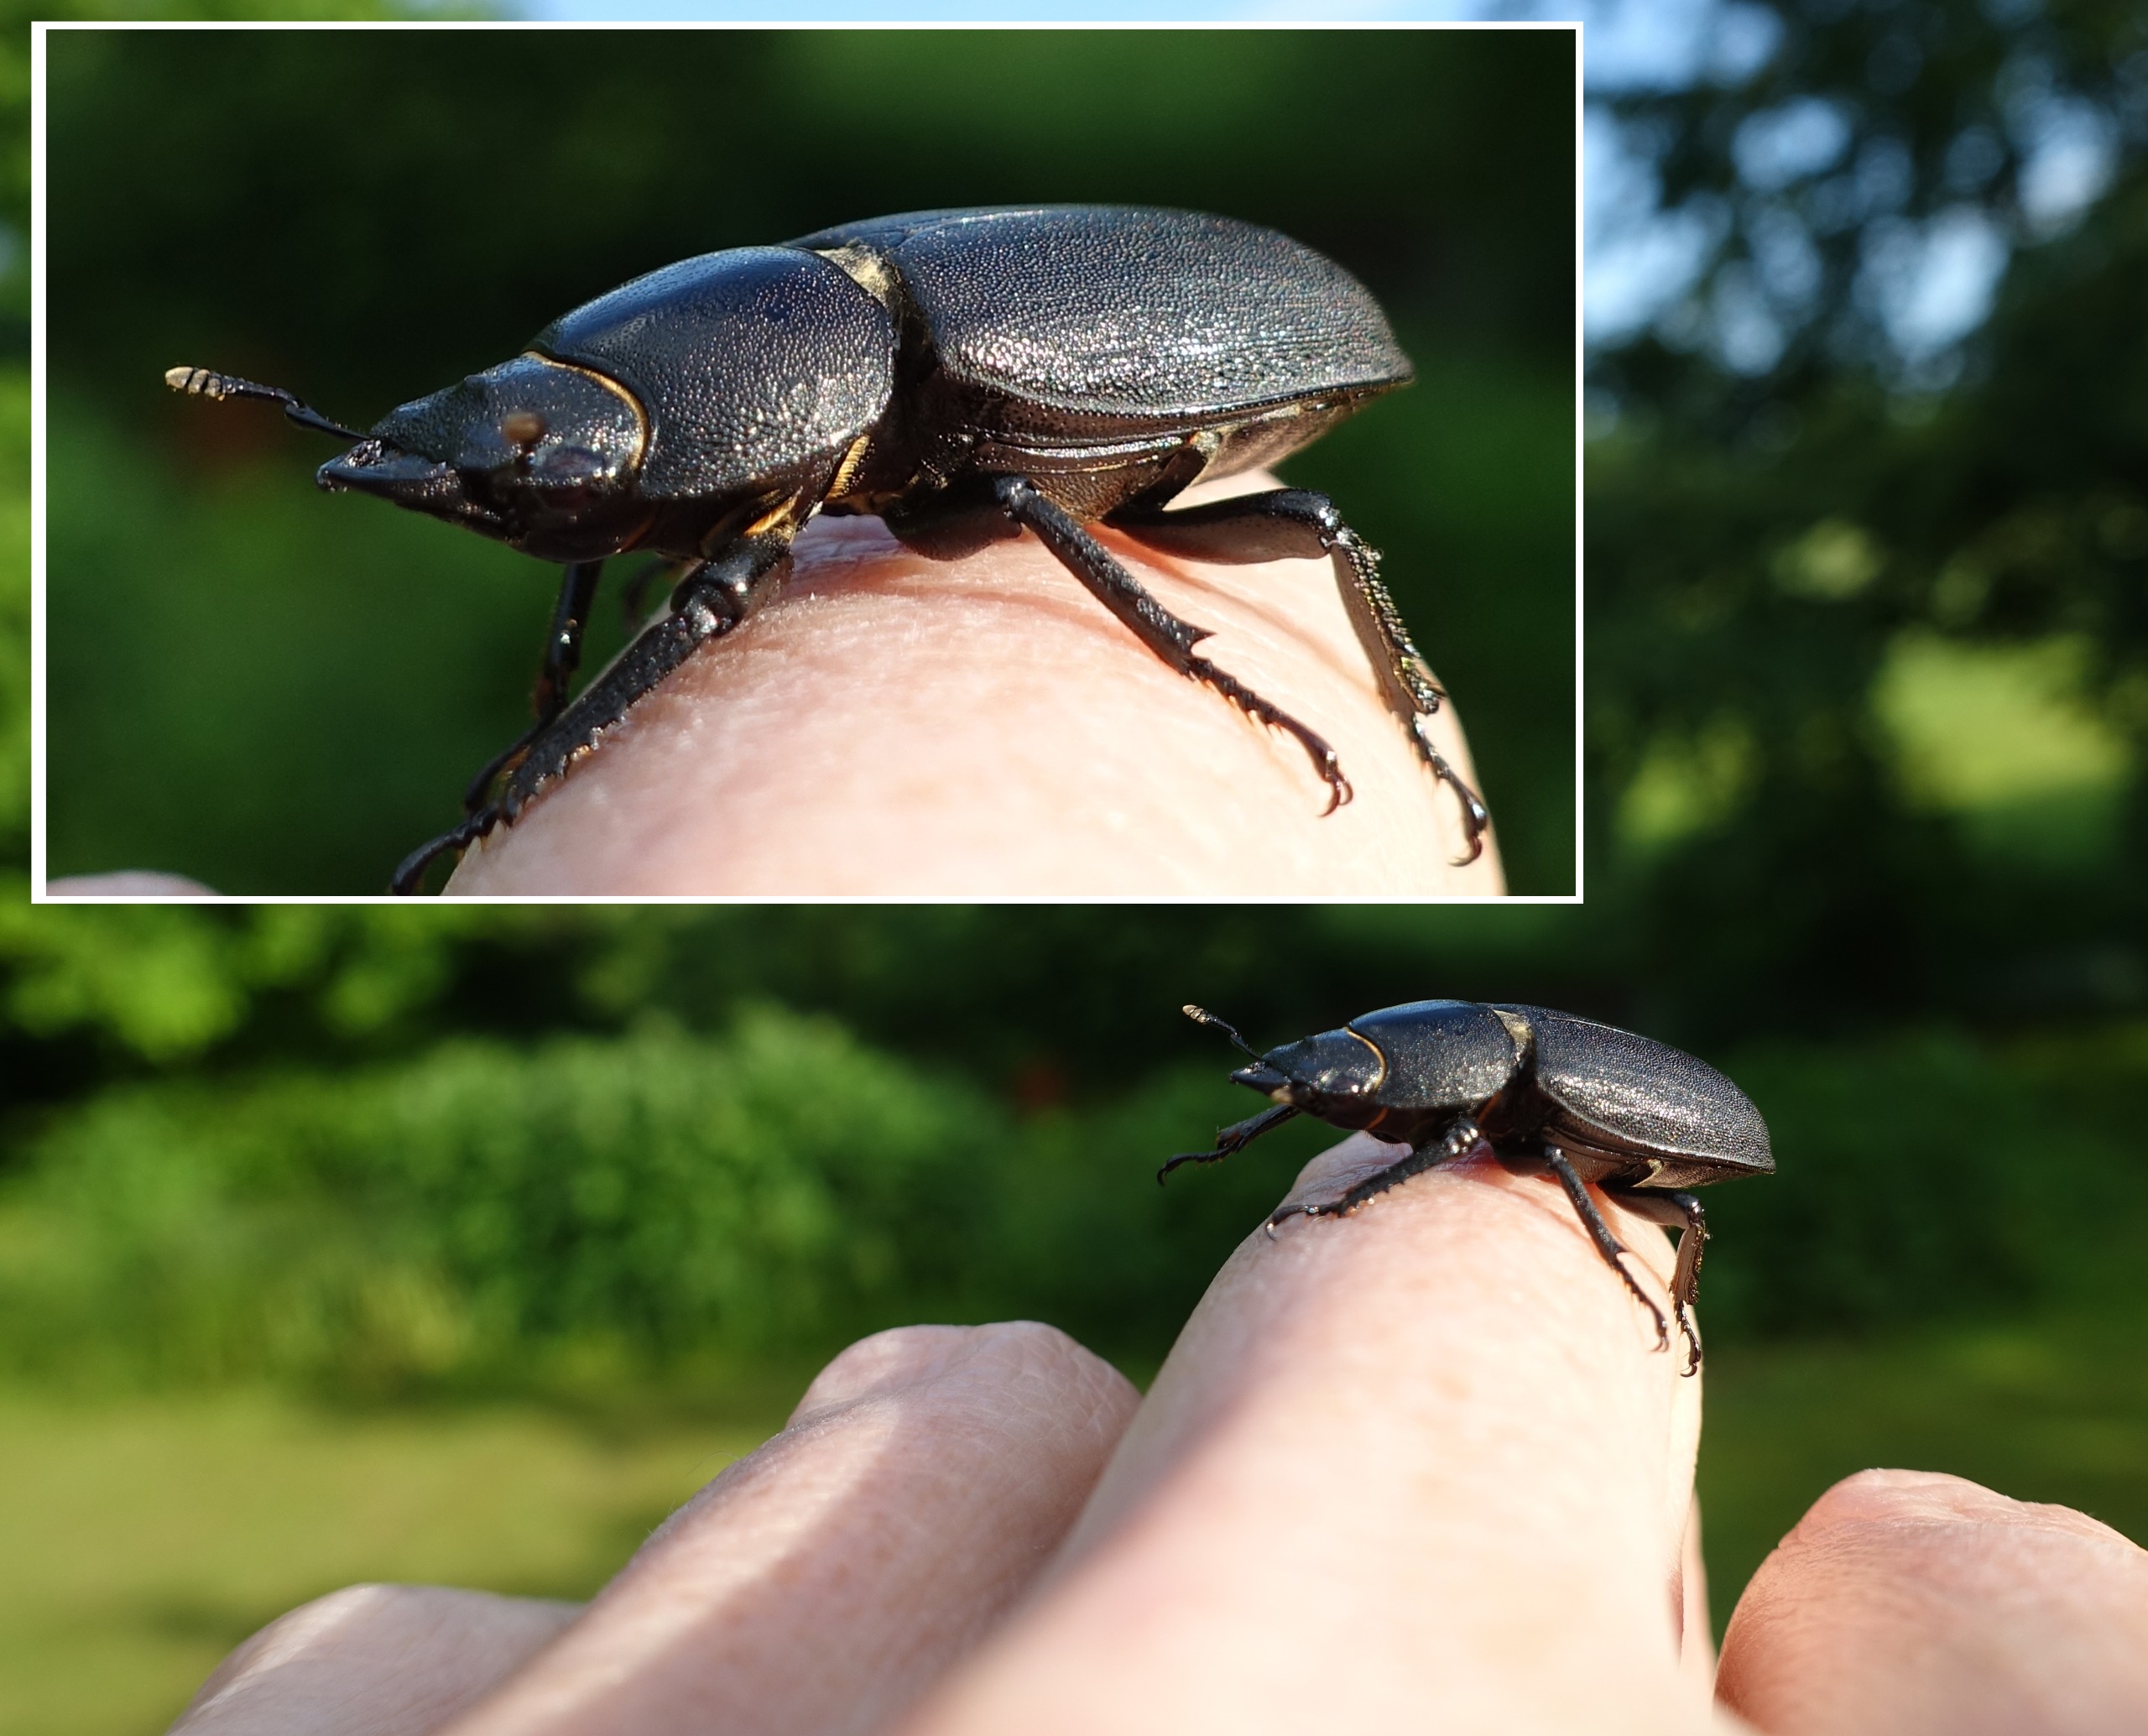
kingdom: Animalia
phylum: Arthropoda
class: Insecta
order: Coleoptera
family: Lucanidae
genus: Dorcus
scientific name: Dorcus parallelipipedus
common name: Bøghjort
